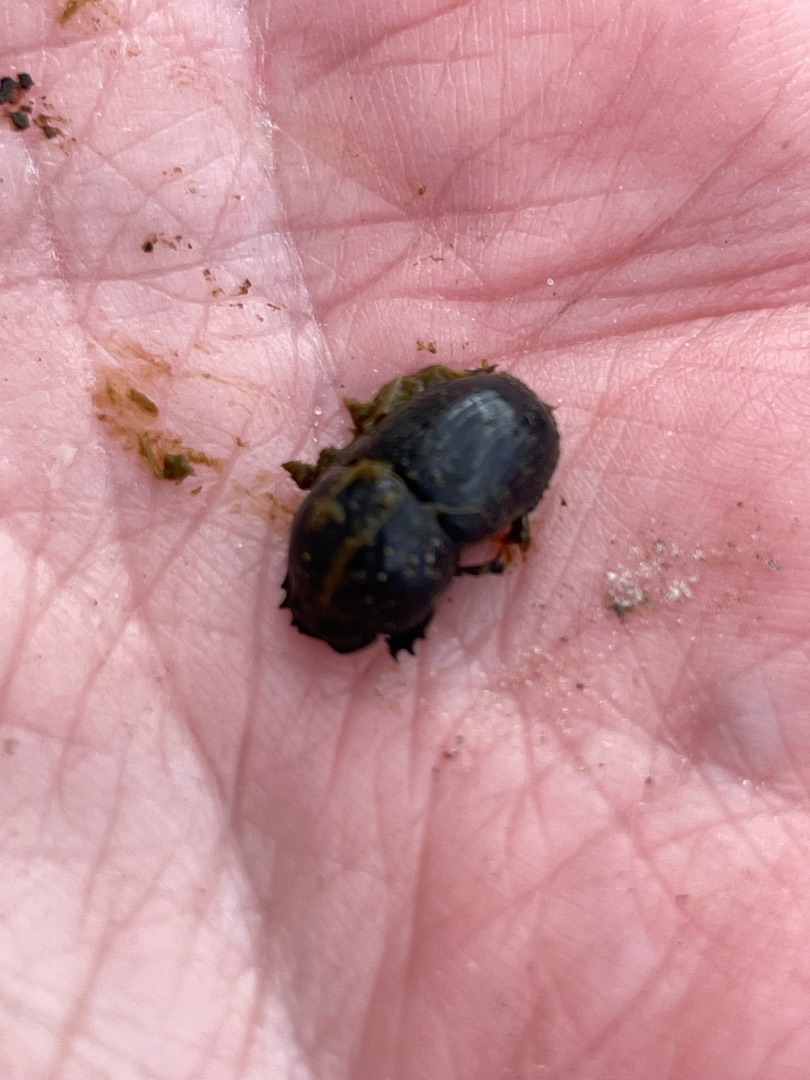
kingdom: Animalia
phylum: Arthropoda
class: Insecta
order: Coleoptera
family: Scarabaeidae
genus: Teuchestes
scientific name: Teuchestes fossor
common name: Stor møgbille
